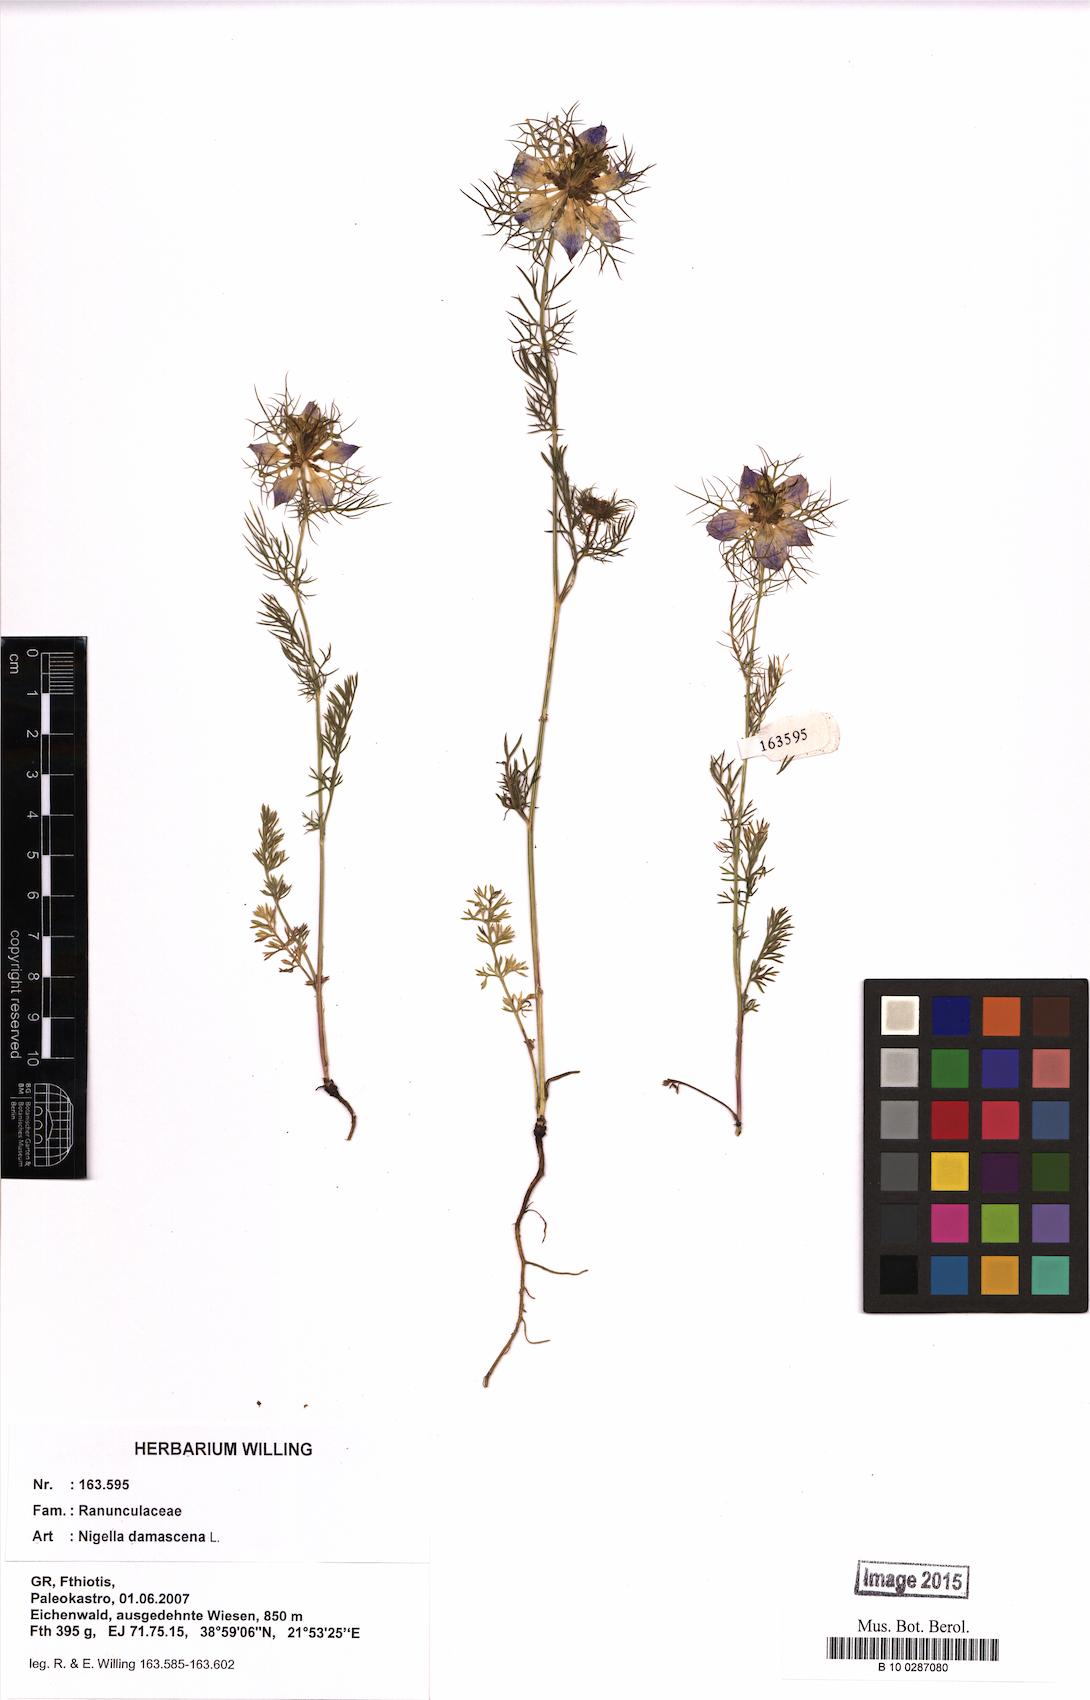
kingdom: Plantae
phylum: Tracheophyta
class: Magnoliopsida
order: Ranunculales
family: Ranunculaceae
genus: Nigella
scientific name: Nigella damascena
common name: Love-in-a-mist
